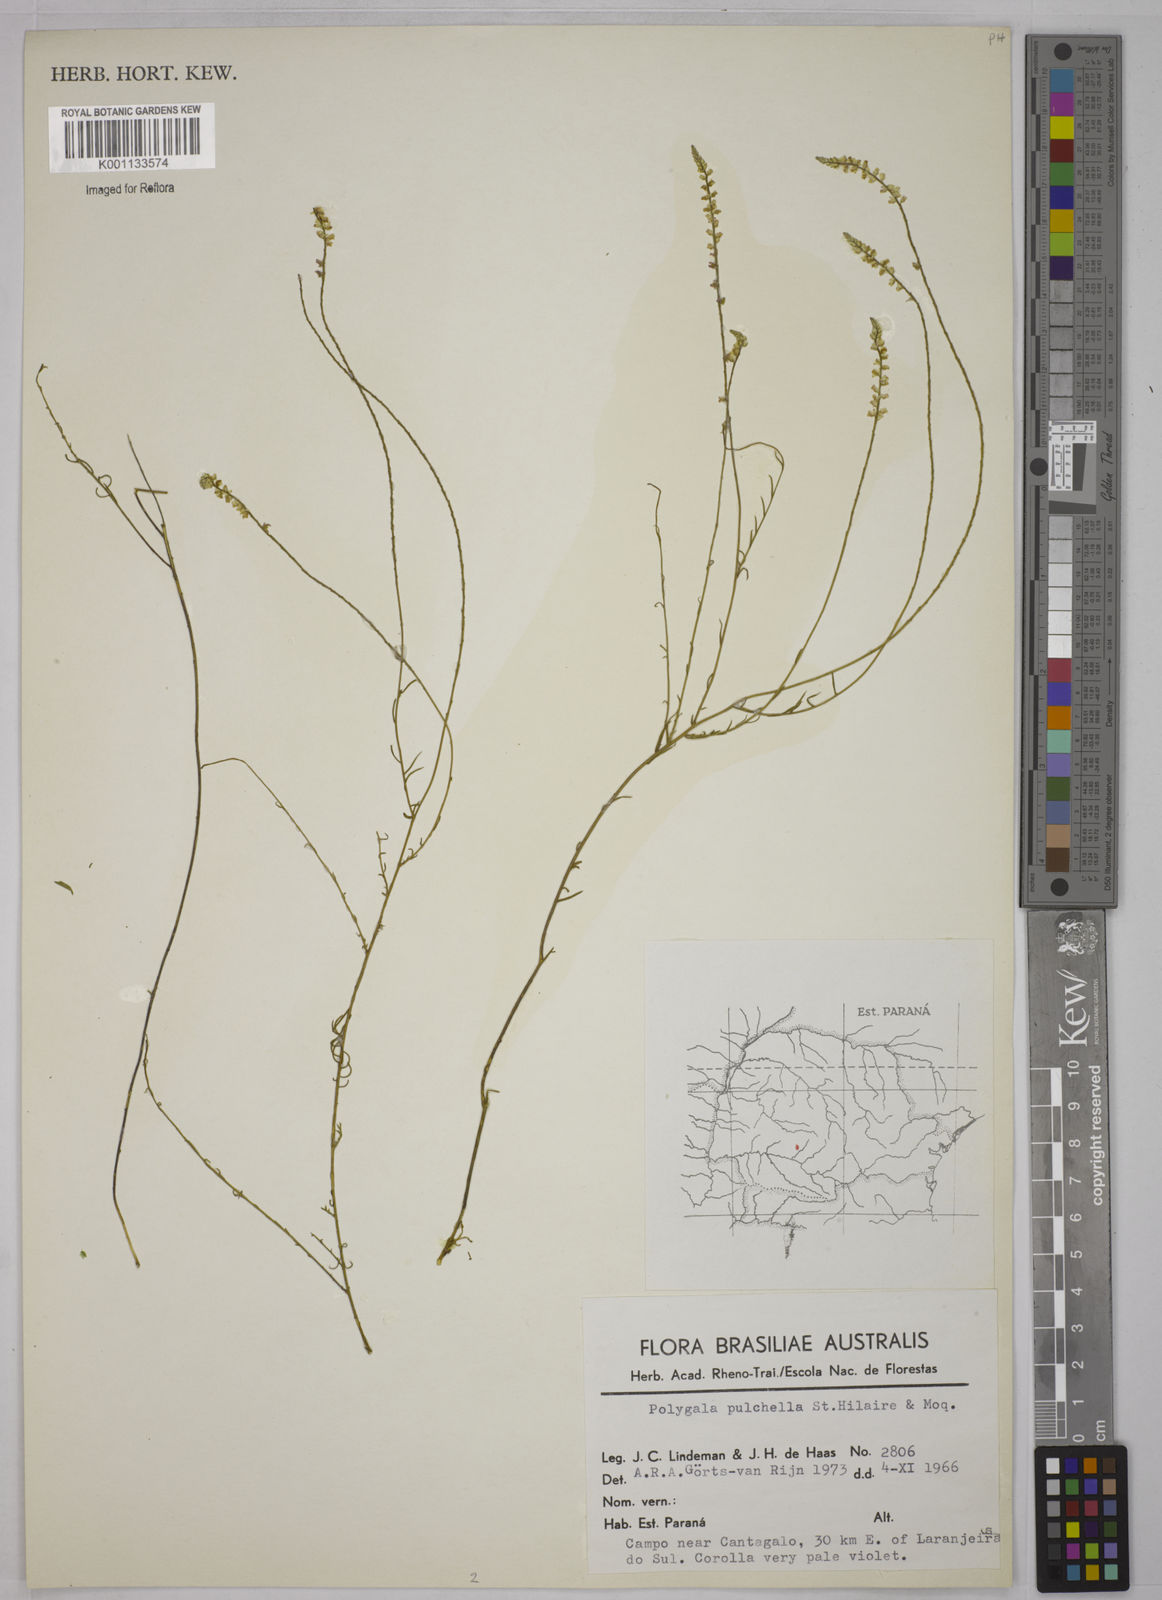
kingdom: Plantae
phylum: Tracheophyta
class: Magnoliopsida
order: Fabales
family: Polygalaceae
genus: Polygala
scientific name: Polygala pulchella
